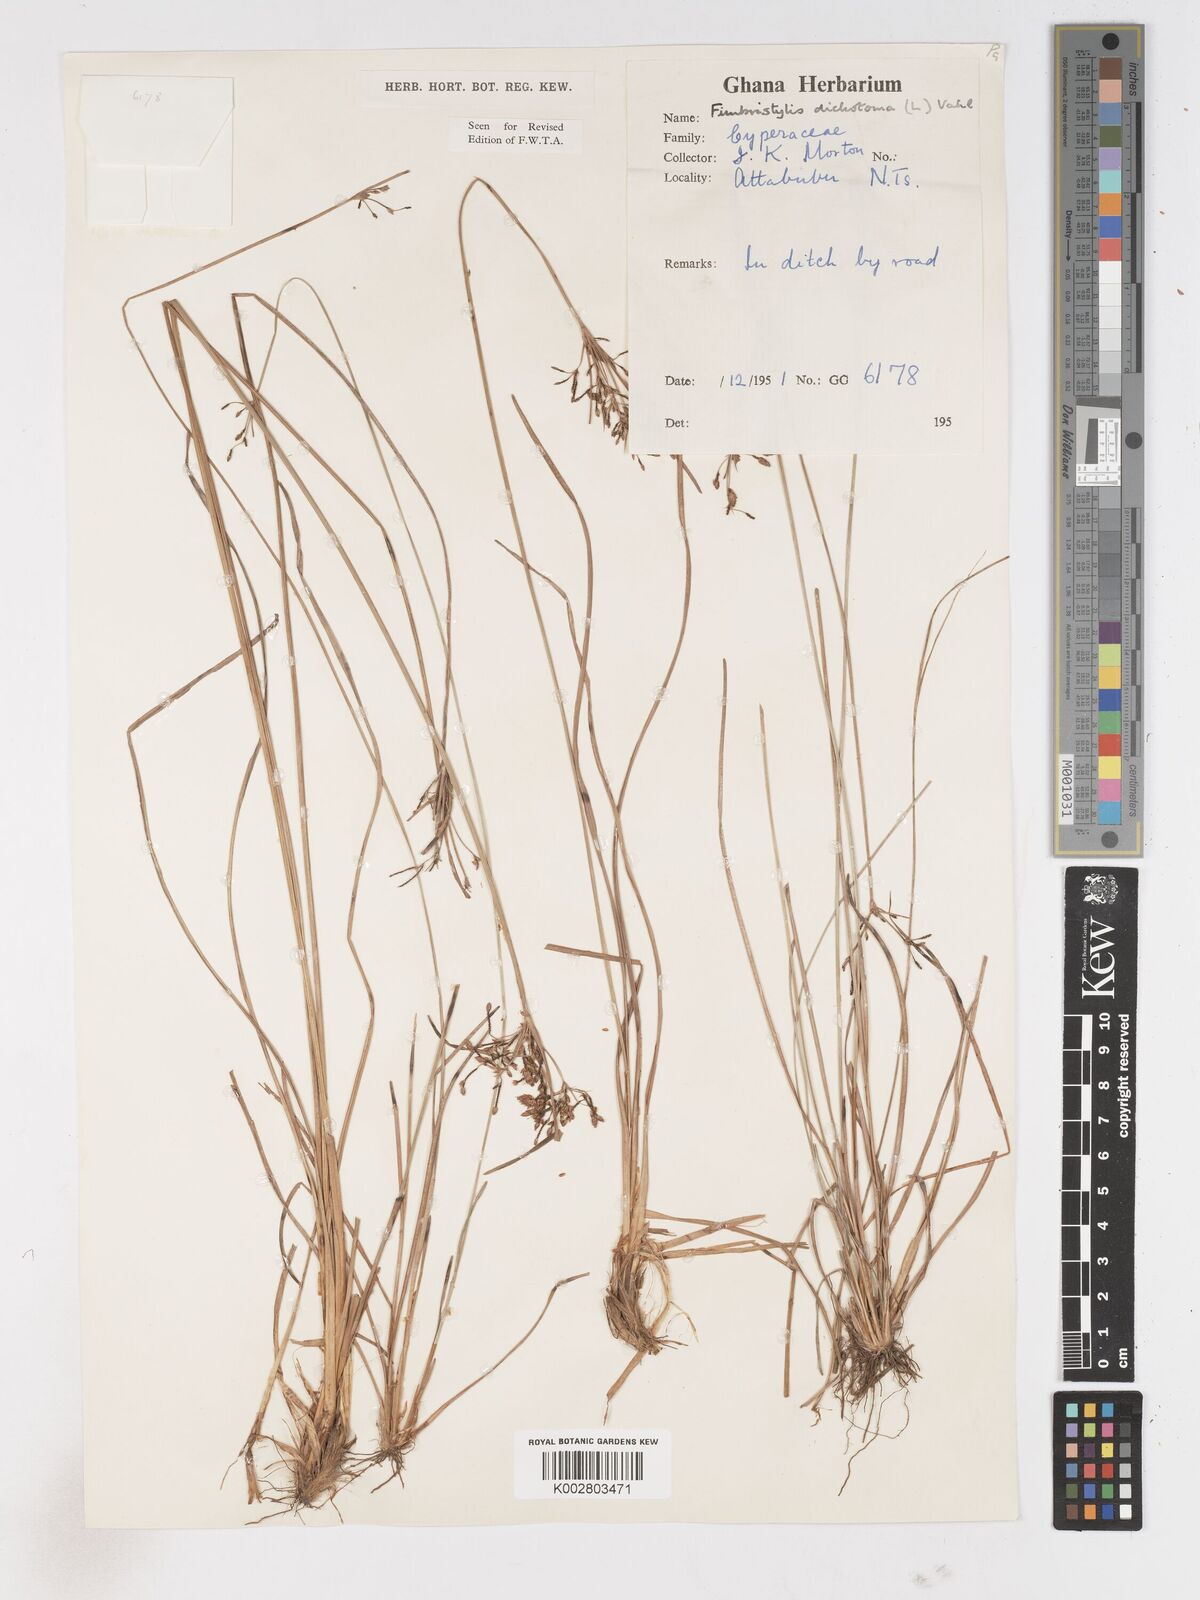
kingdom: Plantae
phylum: Tracheophyta
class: Liliopsida
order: Poales
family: Cyperaceae
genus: Fimbristylis
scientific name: Fimbristylis dichotoma
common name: Forked fimbry
